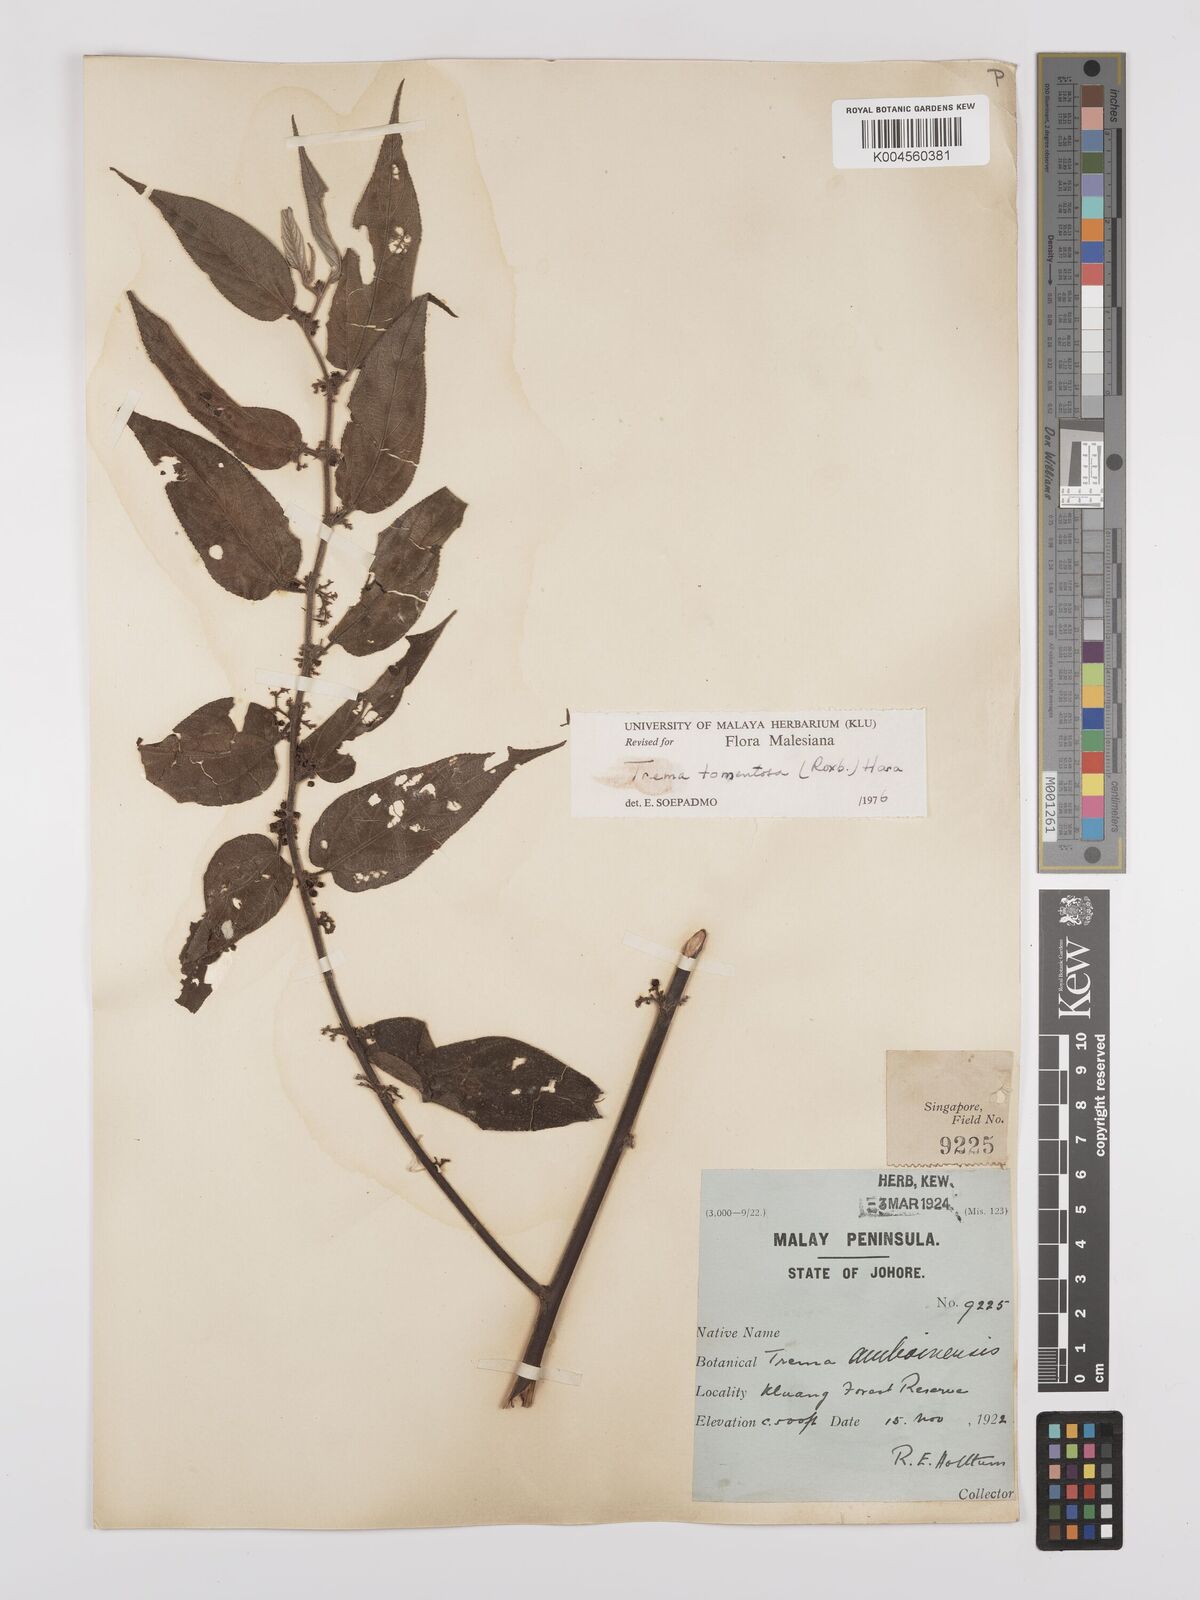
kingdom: Plantae
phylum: Tracheophyta
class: Magnoliopsida
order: Rosales
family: Cannabaceae
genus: Trema
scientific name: Trema tomentosum
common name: Peach-leaf-poisonbush
